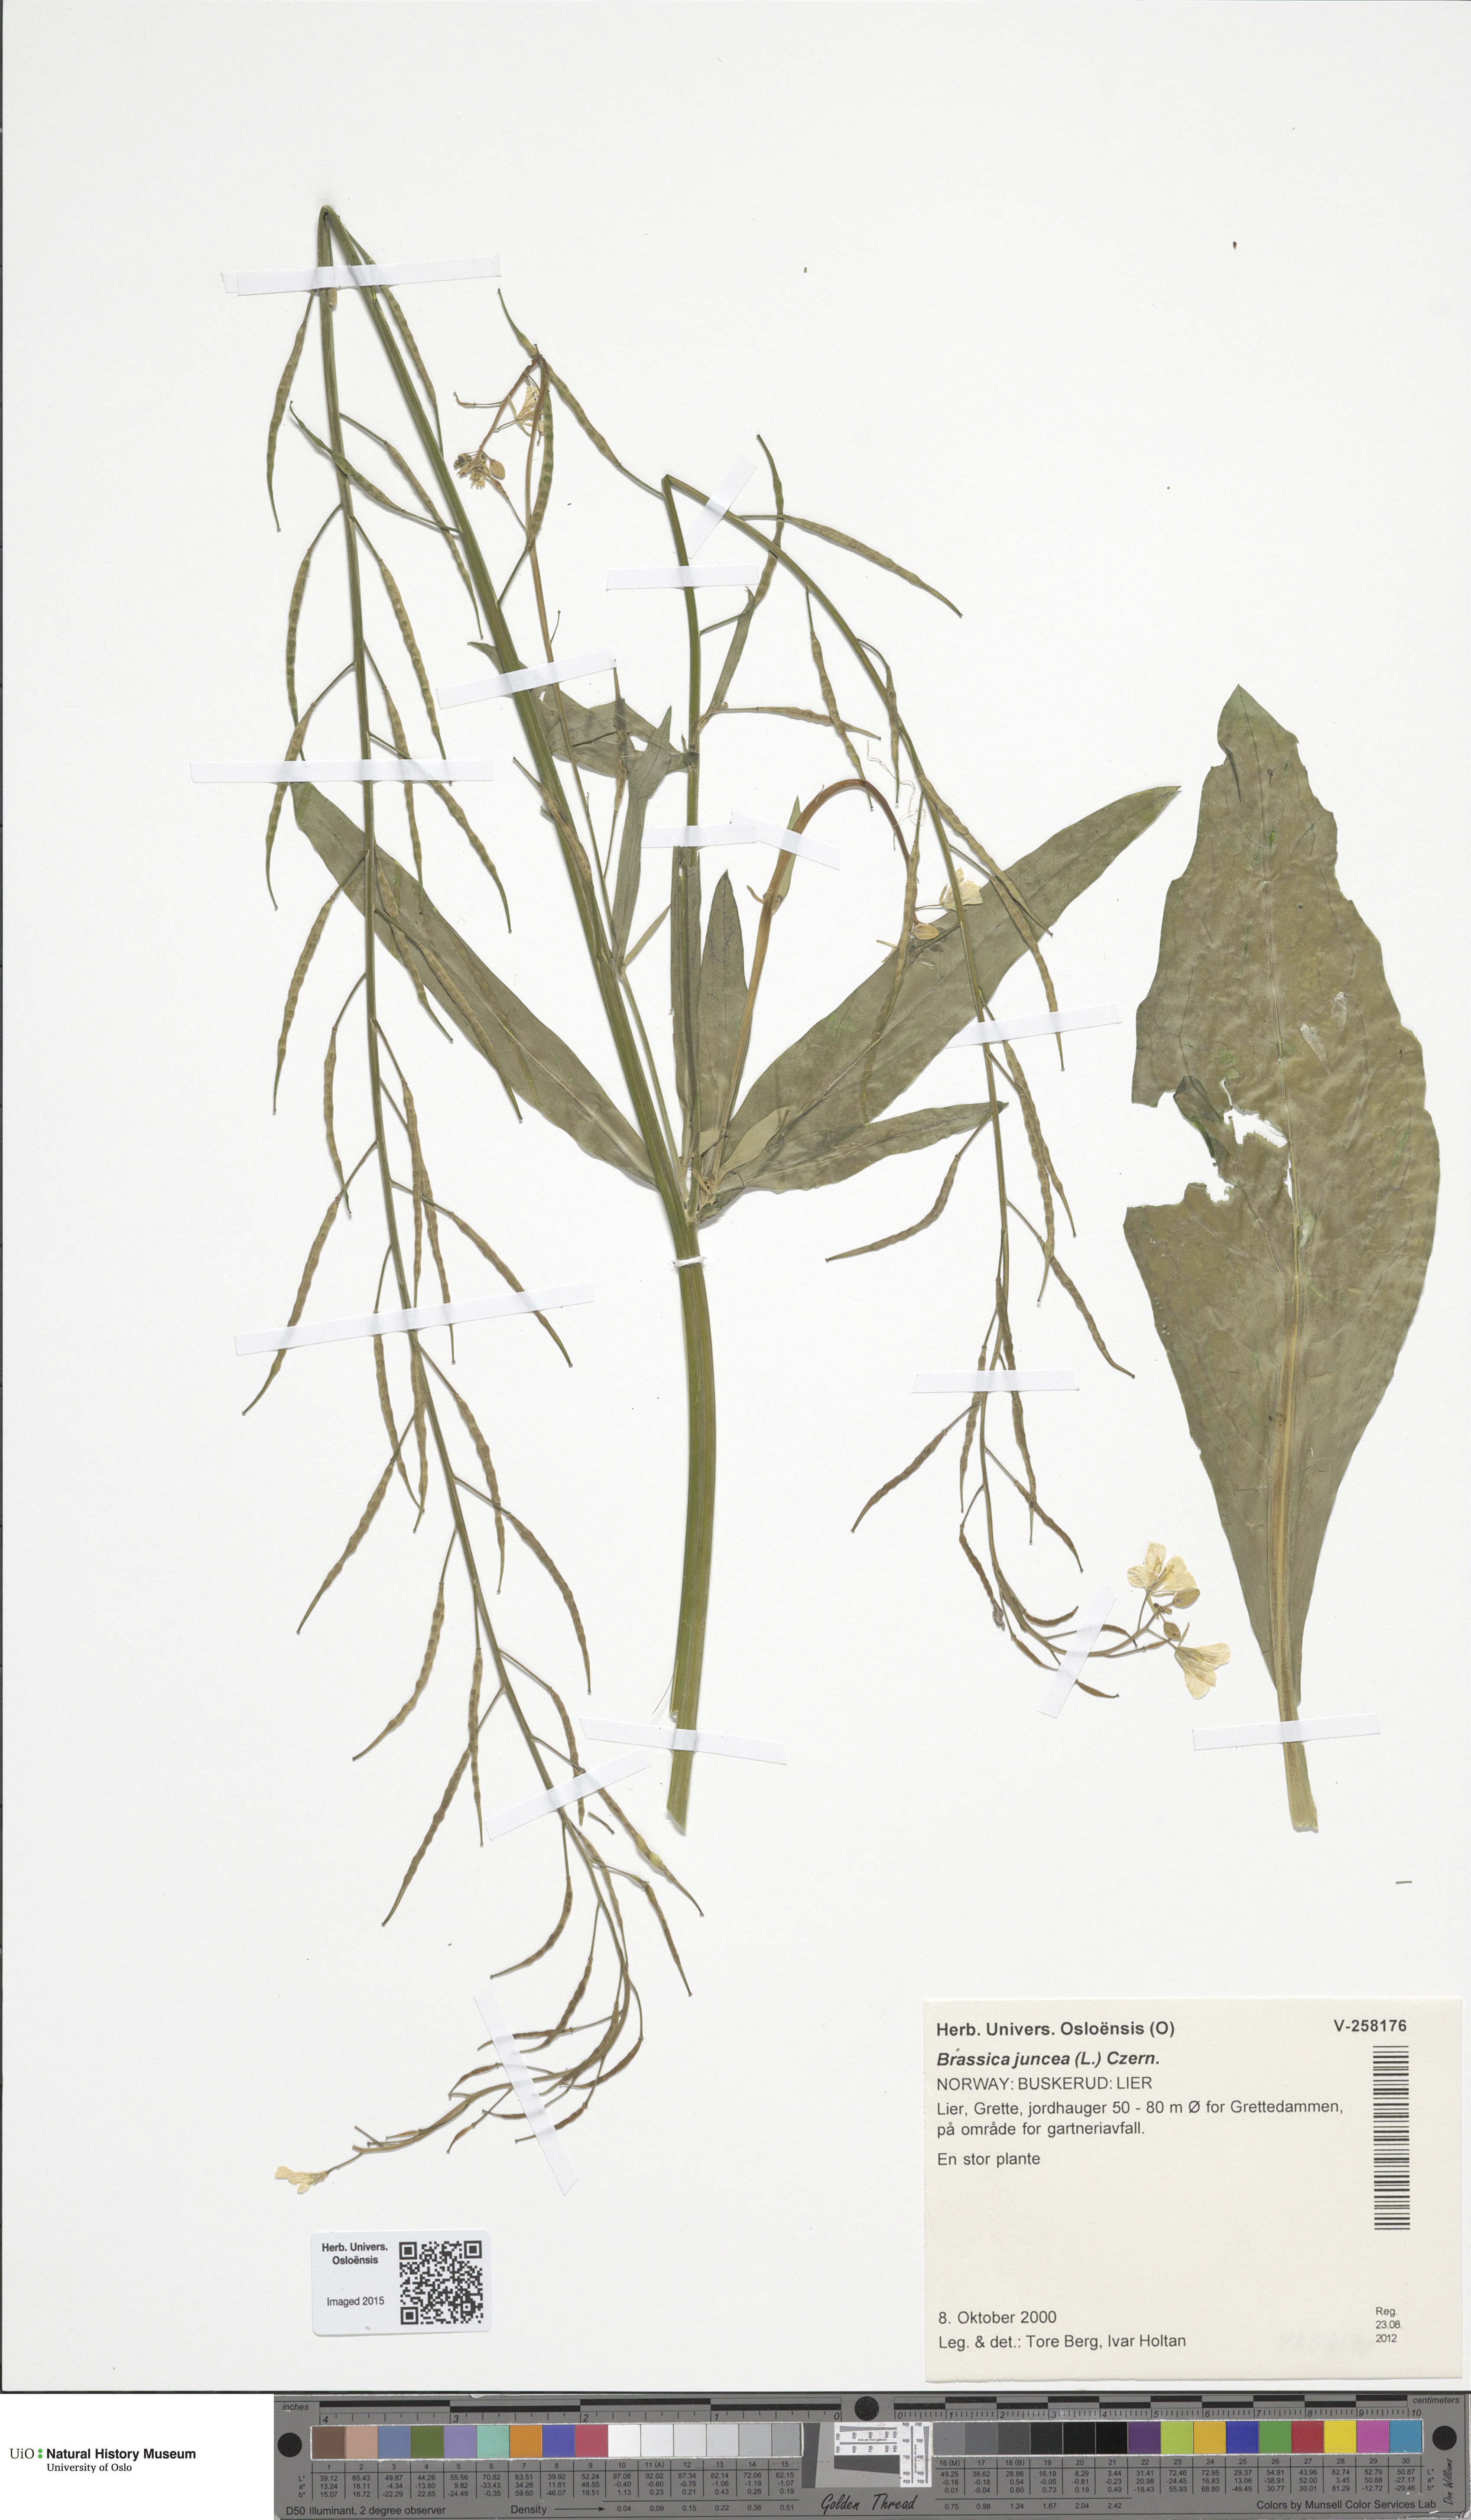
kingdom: Plantae
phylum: Tracheophyta
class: Magnoliopsida
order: Brassicales
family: Brassicaceae
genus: Brassica
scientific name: Brassica juncea
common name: Brown mustard
